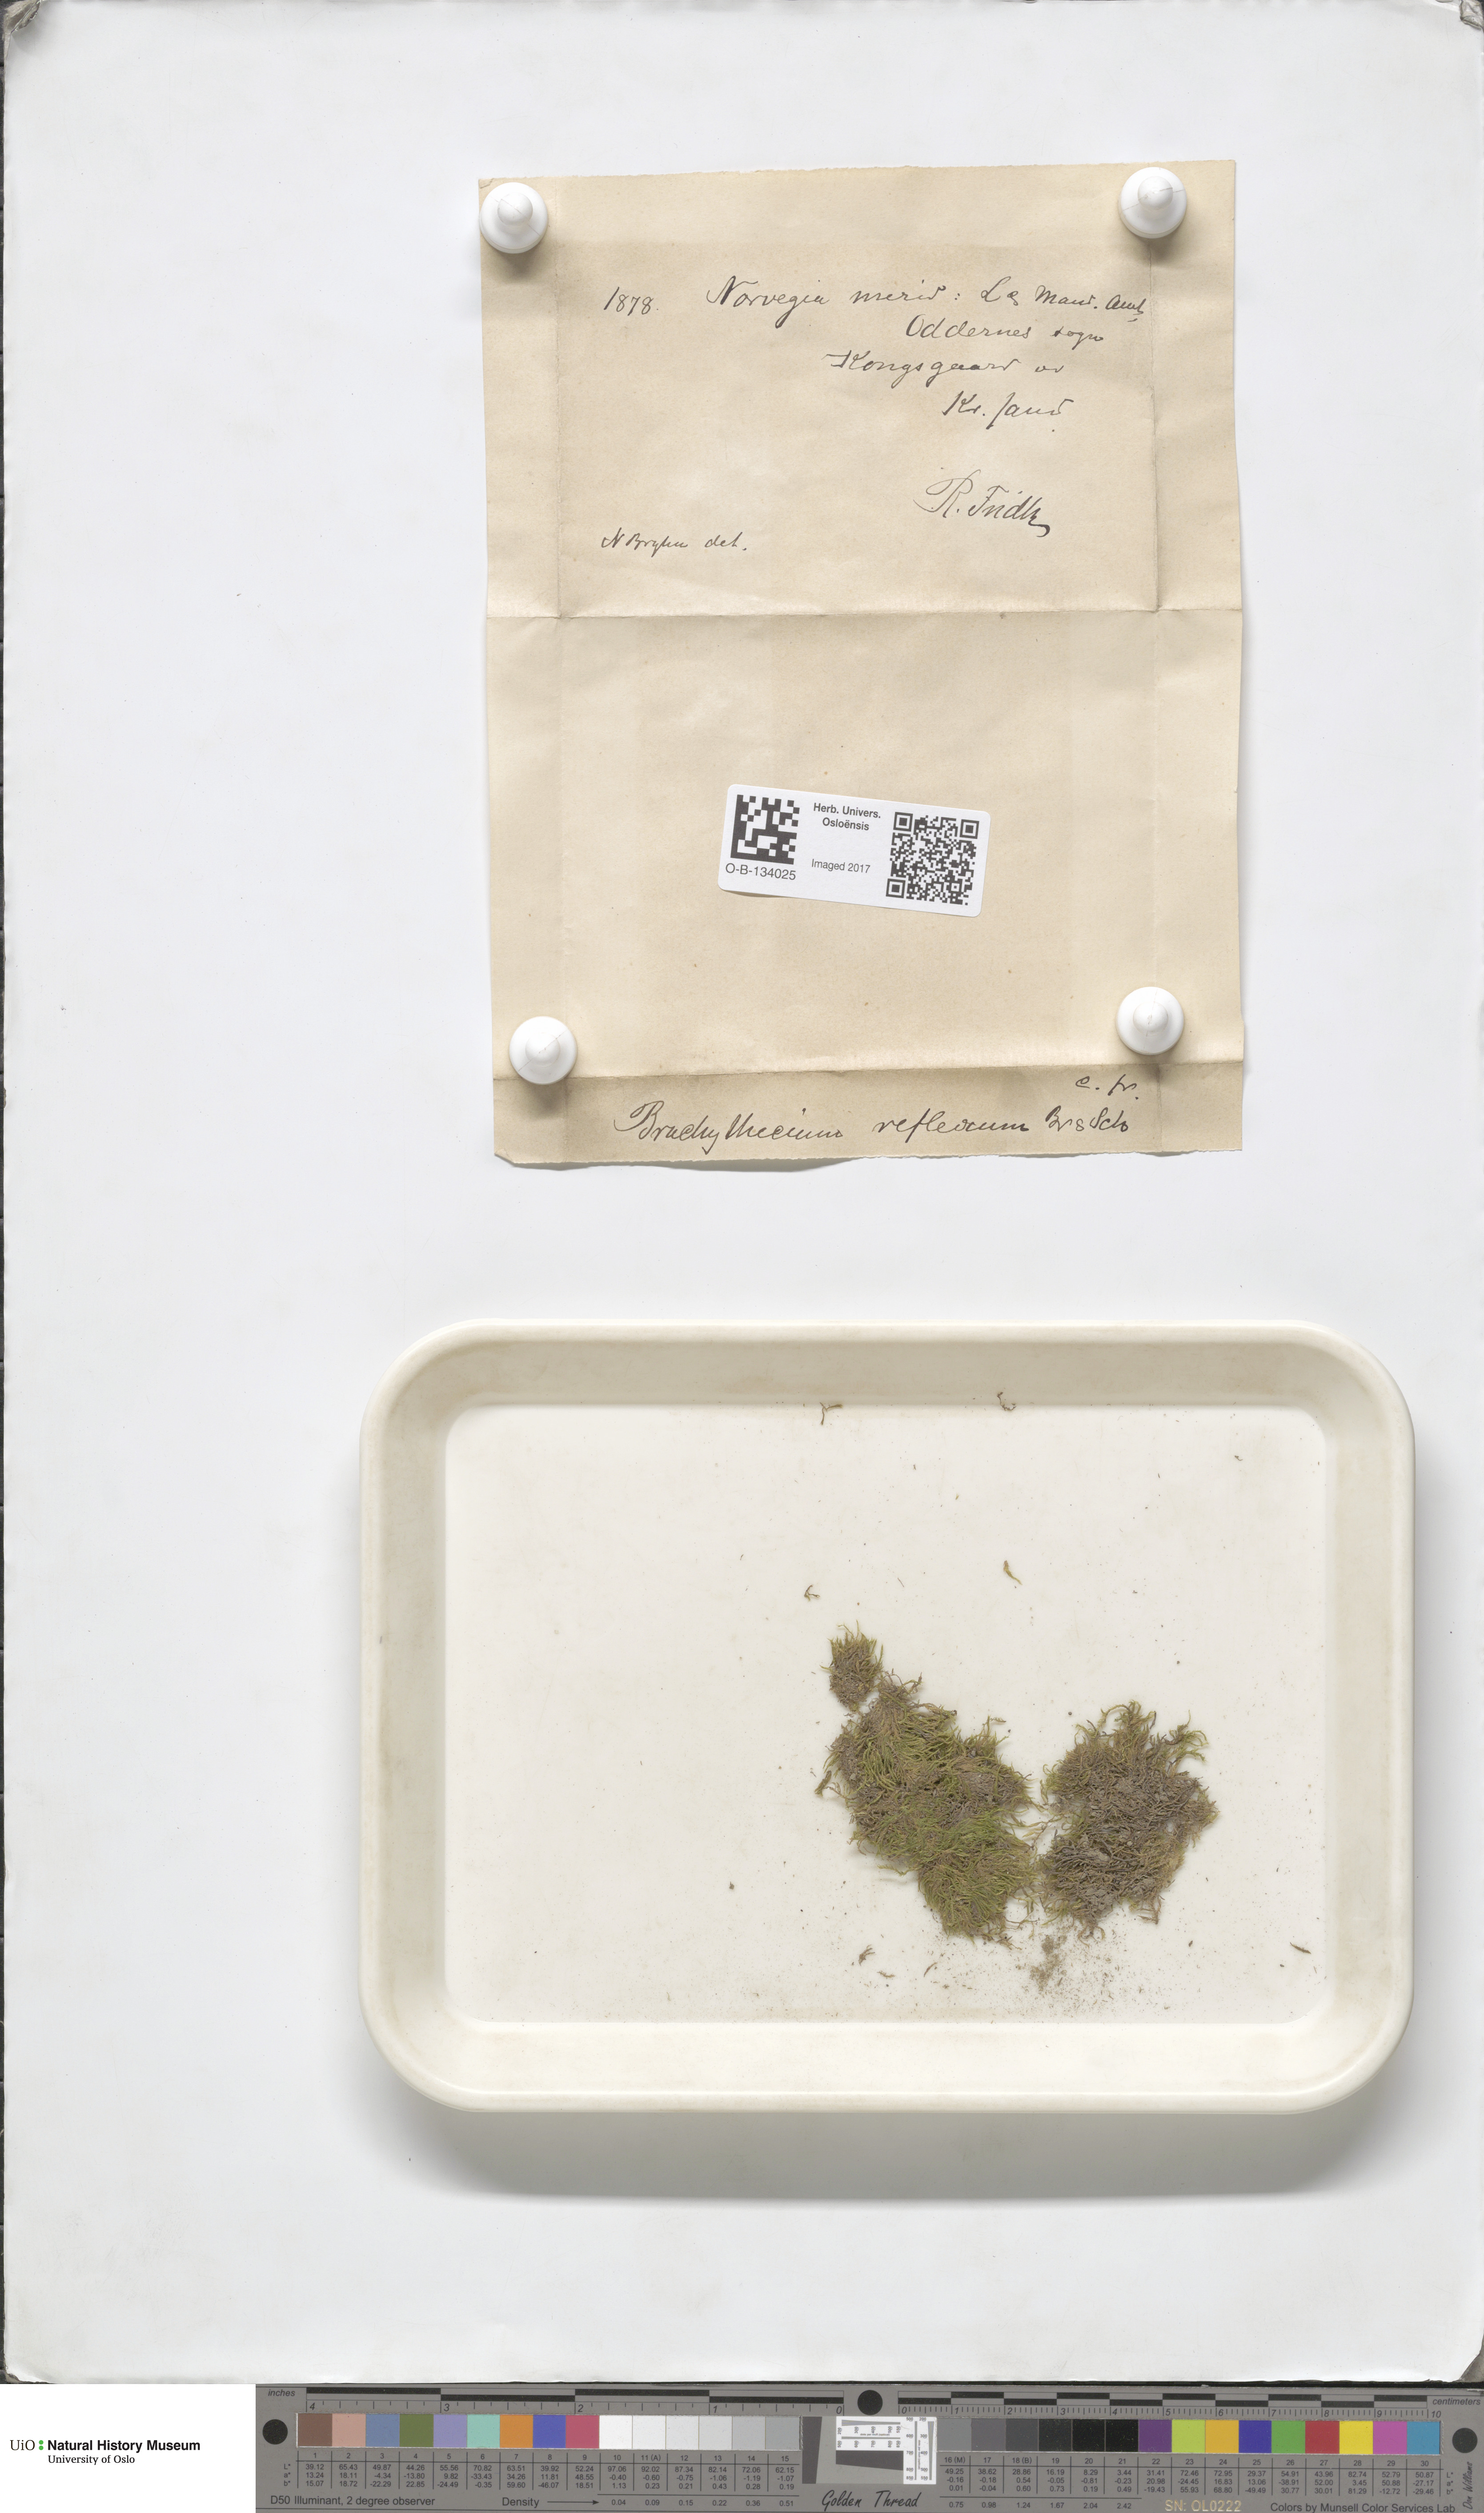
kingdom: Plantae
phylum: Bryophyta
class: Bryopsida
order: Hypnales
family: Brachytheciaceae
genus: Sciuro-hypnum
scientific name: Sciuro-hypnum reflexum
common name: Reflexed feather-moss
